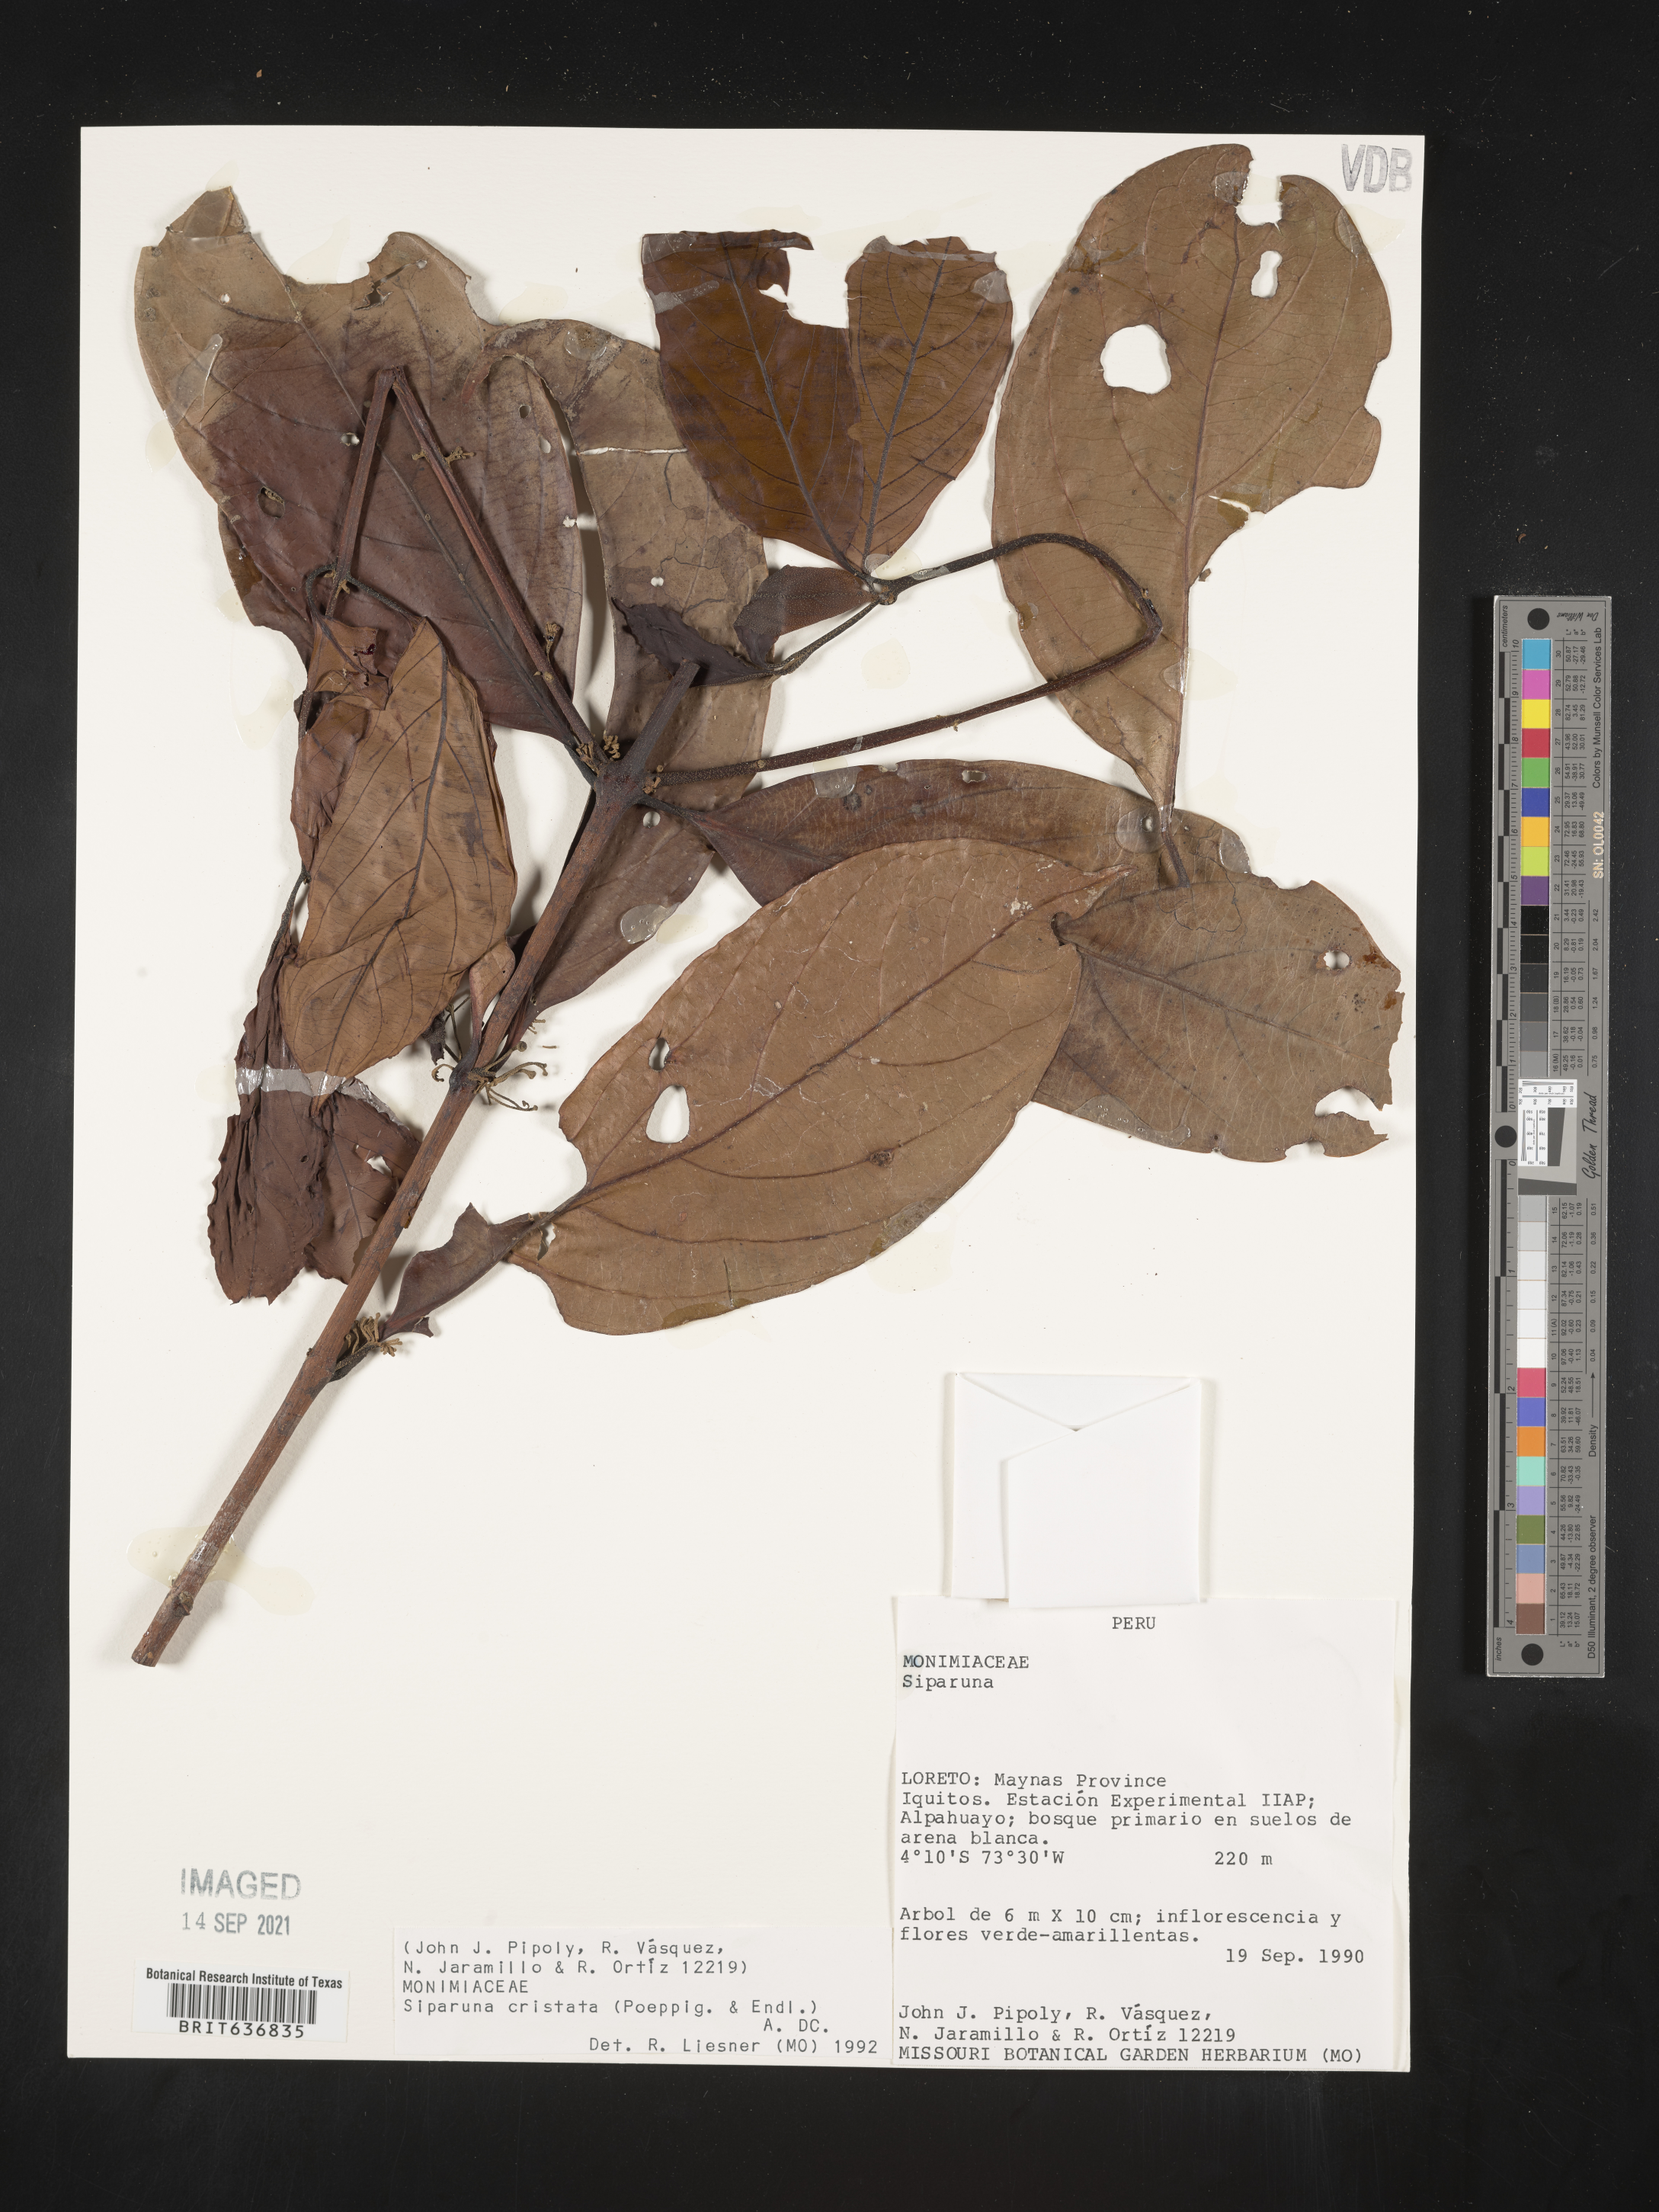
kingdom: Plantae
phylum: Tracheophyta
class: Magnoliopsida
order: Laurales
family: Siparunaceae
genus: Siparuna
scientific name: Siparuna
